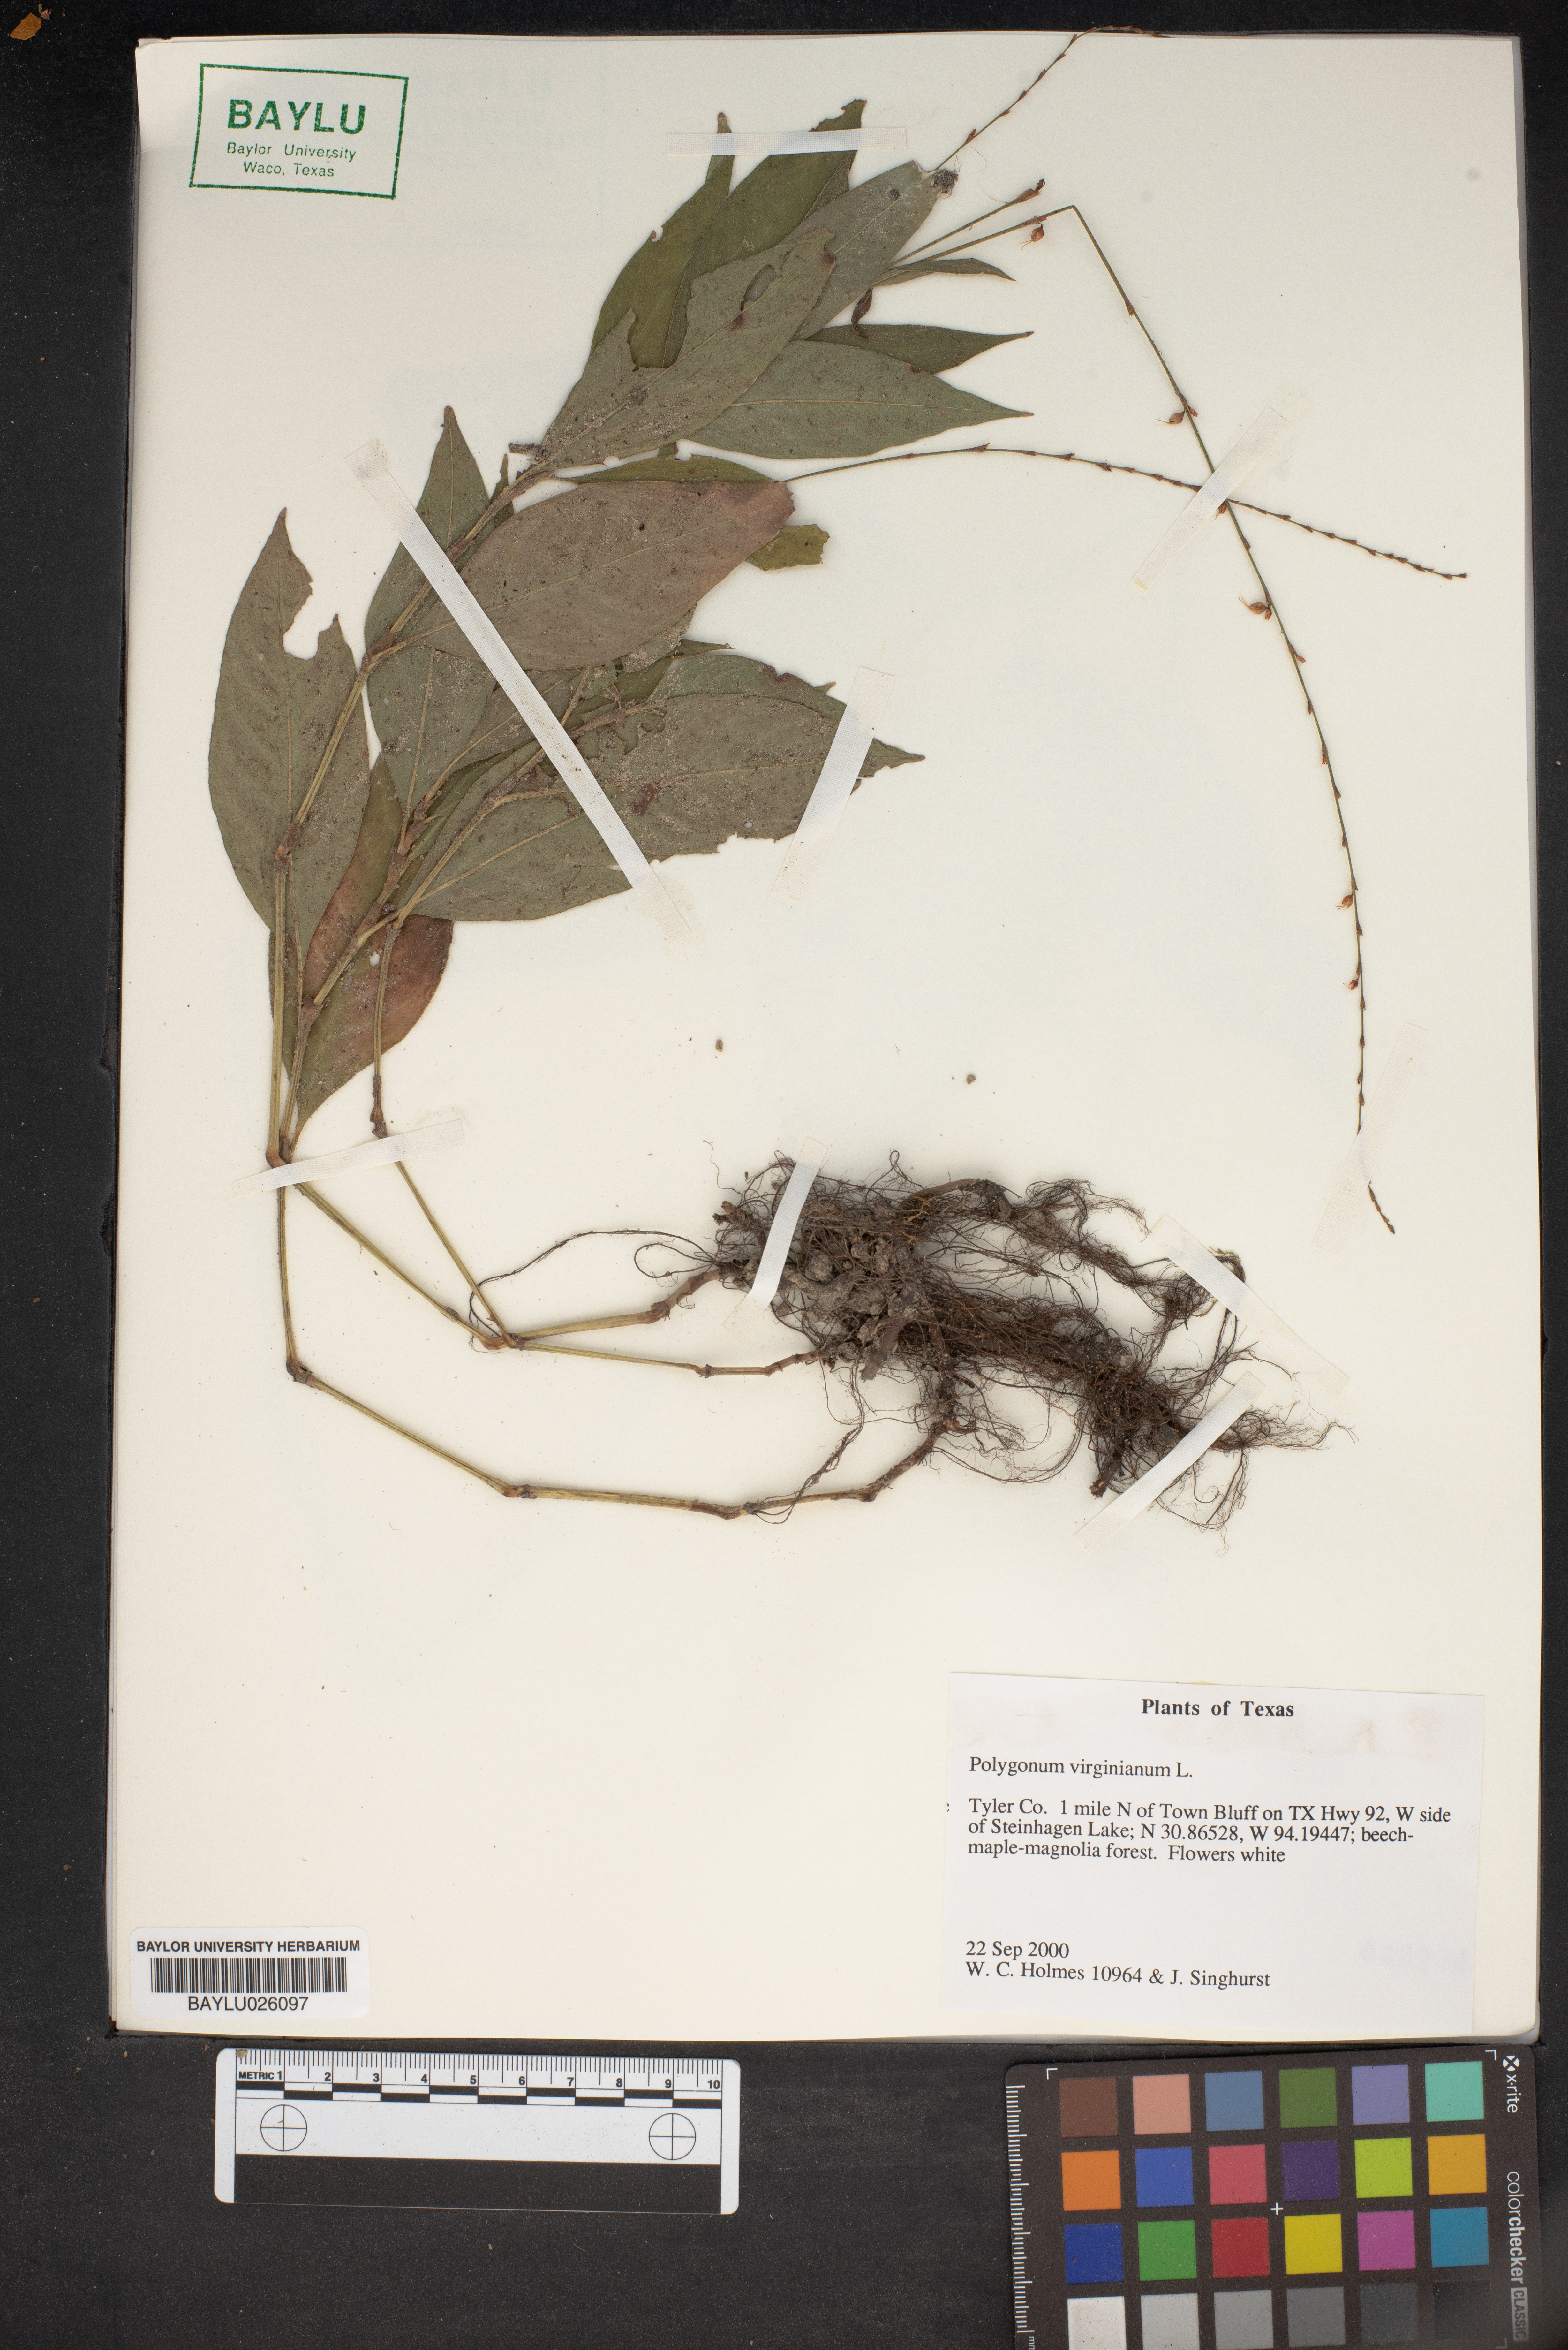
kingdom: Plantae
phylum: Tracheophyta
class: Magnoliopsida
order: Caryophyllales
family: Polygonaceae
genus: Persicaria
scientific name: Persicaria virginiana
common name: Jumpseed
